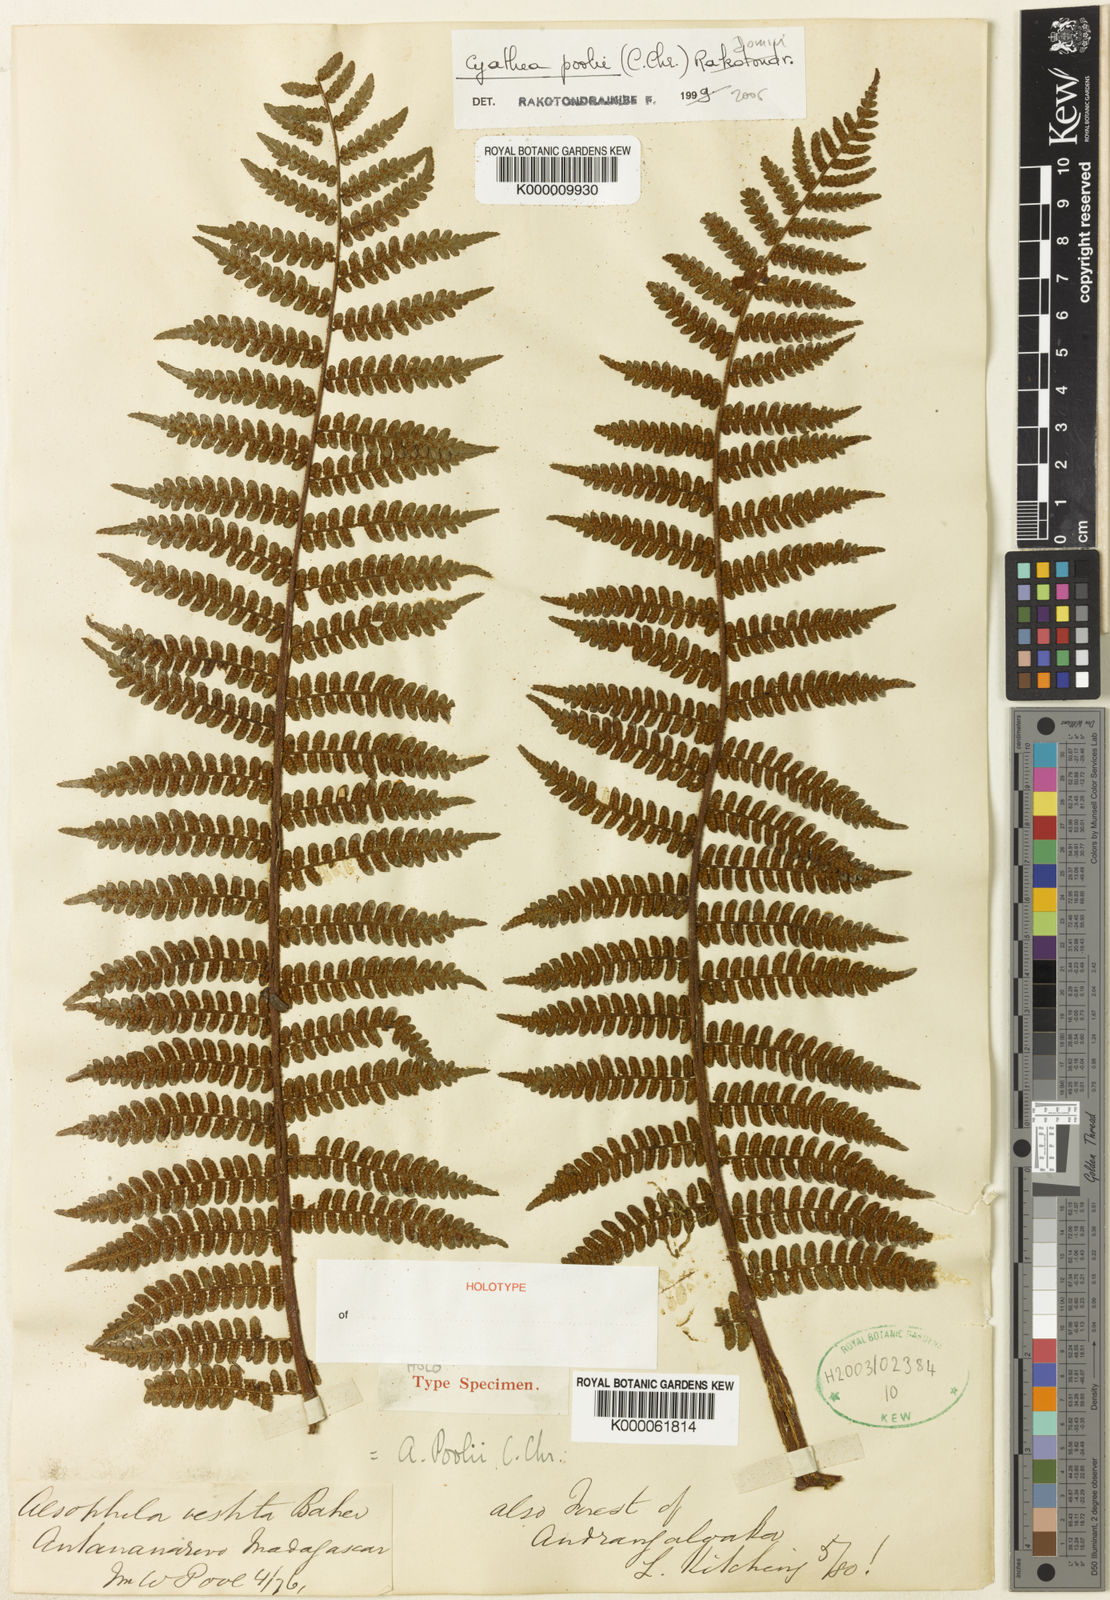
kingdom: Plantae
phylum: Tracheophyta
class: Polypodiopsida
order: Cyatheales
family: Cyatheaceae
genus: Gymnosphaera
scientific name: Gymnosphaera poolii
